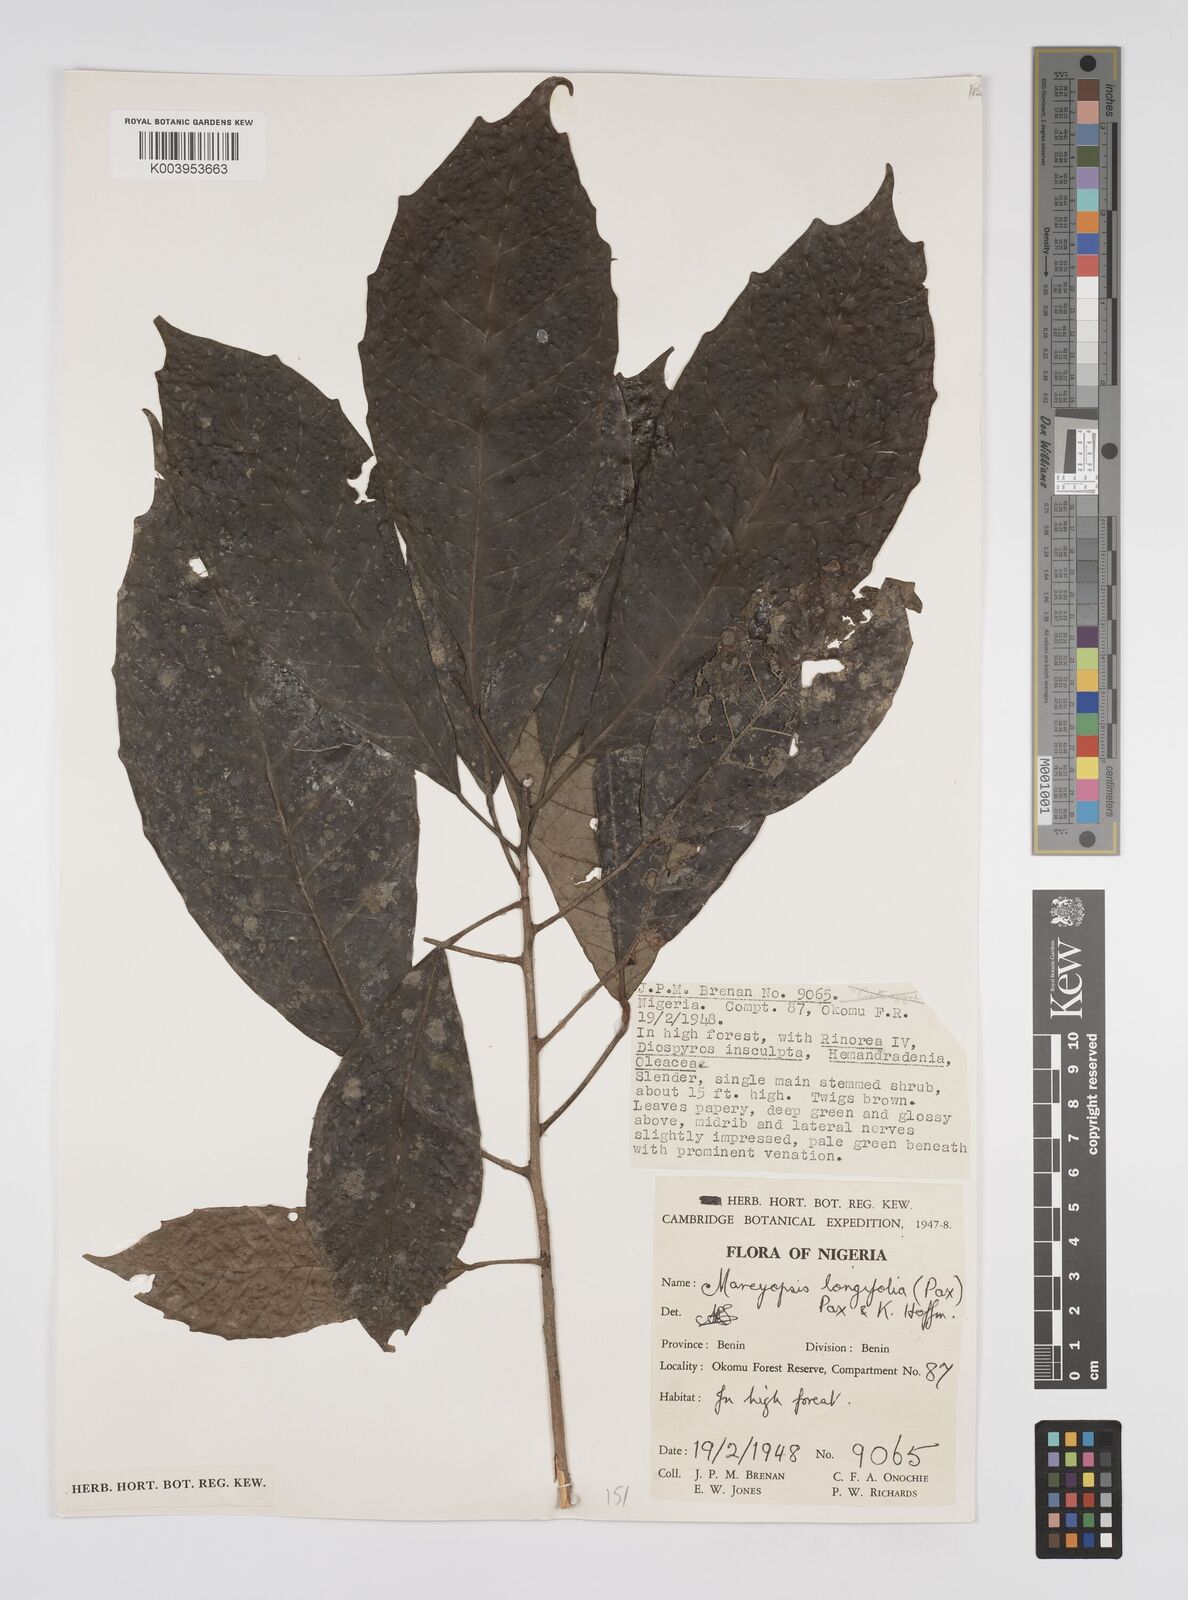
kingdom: Plantae
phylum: Tracheophyta
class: Magnoliopsida
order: Malpighiales
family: Euphorbiaceae
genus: Mareyopsis
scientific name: Mareyopsis longifolia
